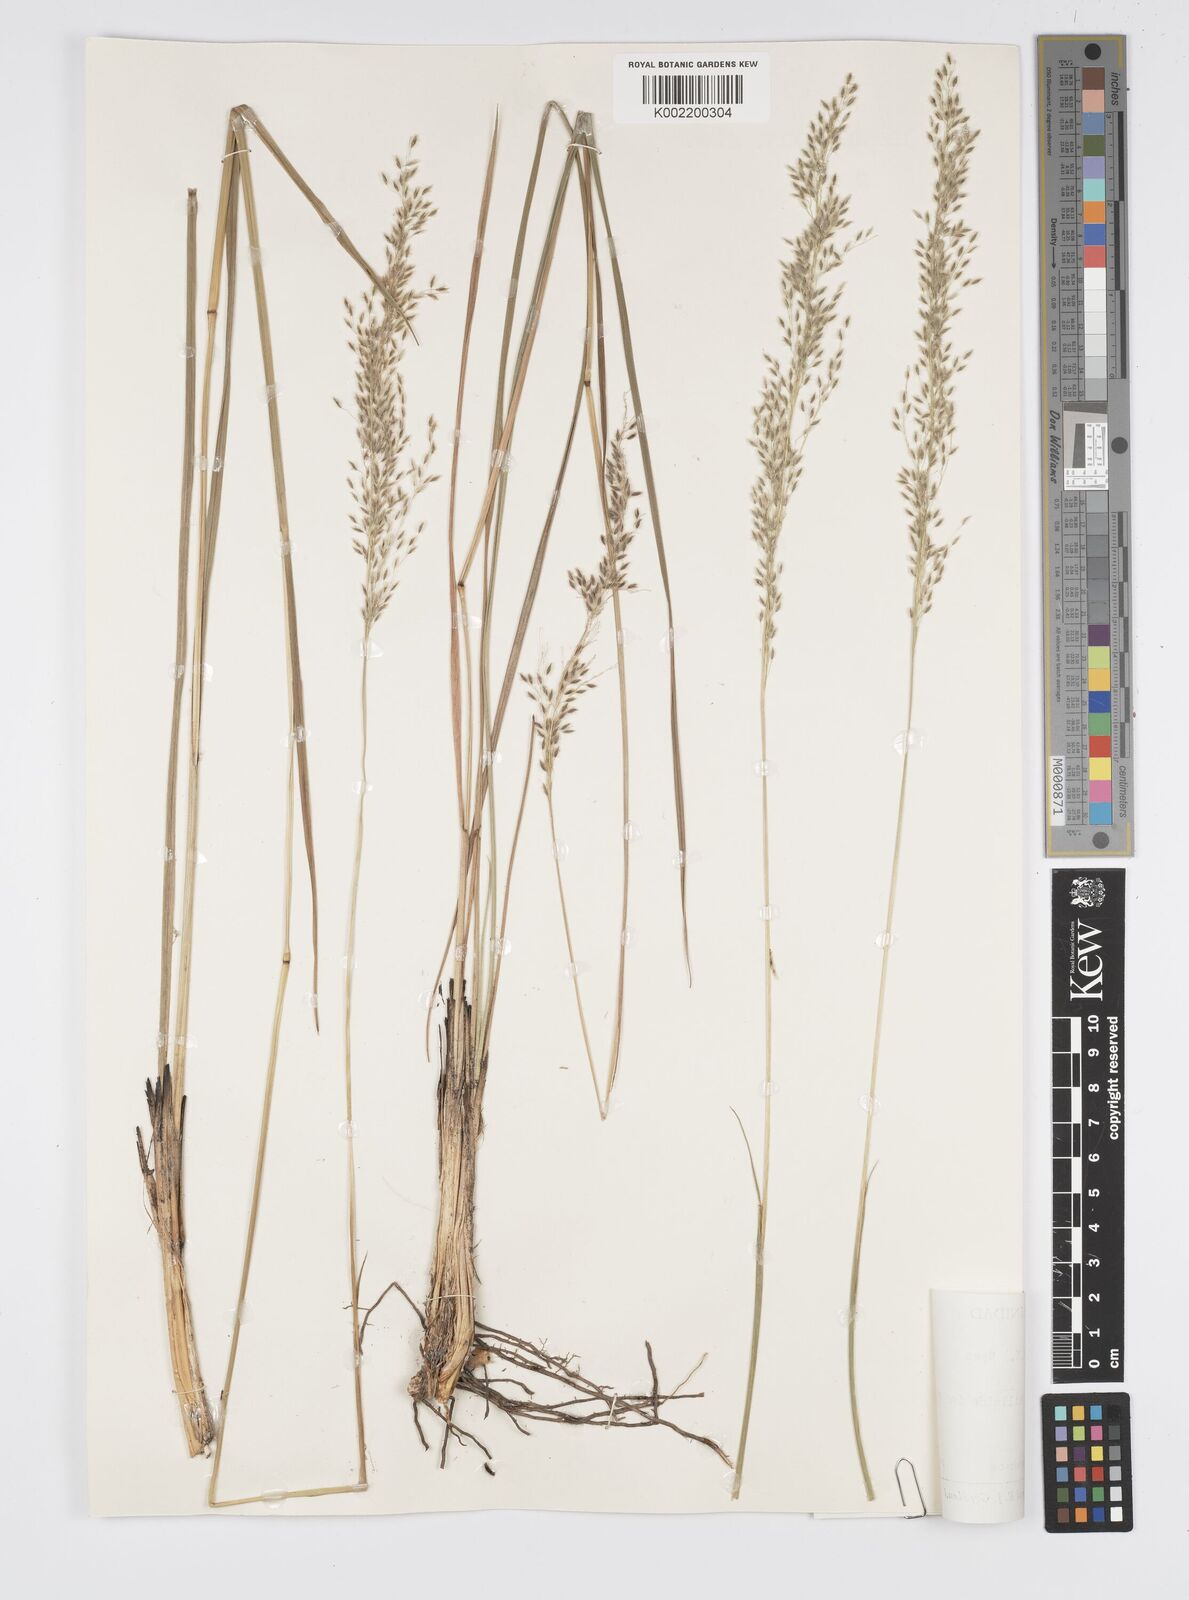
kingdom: Plantae
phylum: Tracheophyta
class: Liliopsida
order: Poales
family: Poaceae
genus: Anthenantia
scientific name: Anthenantia lanata
